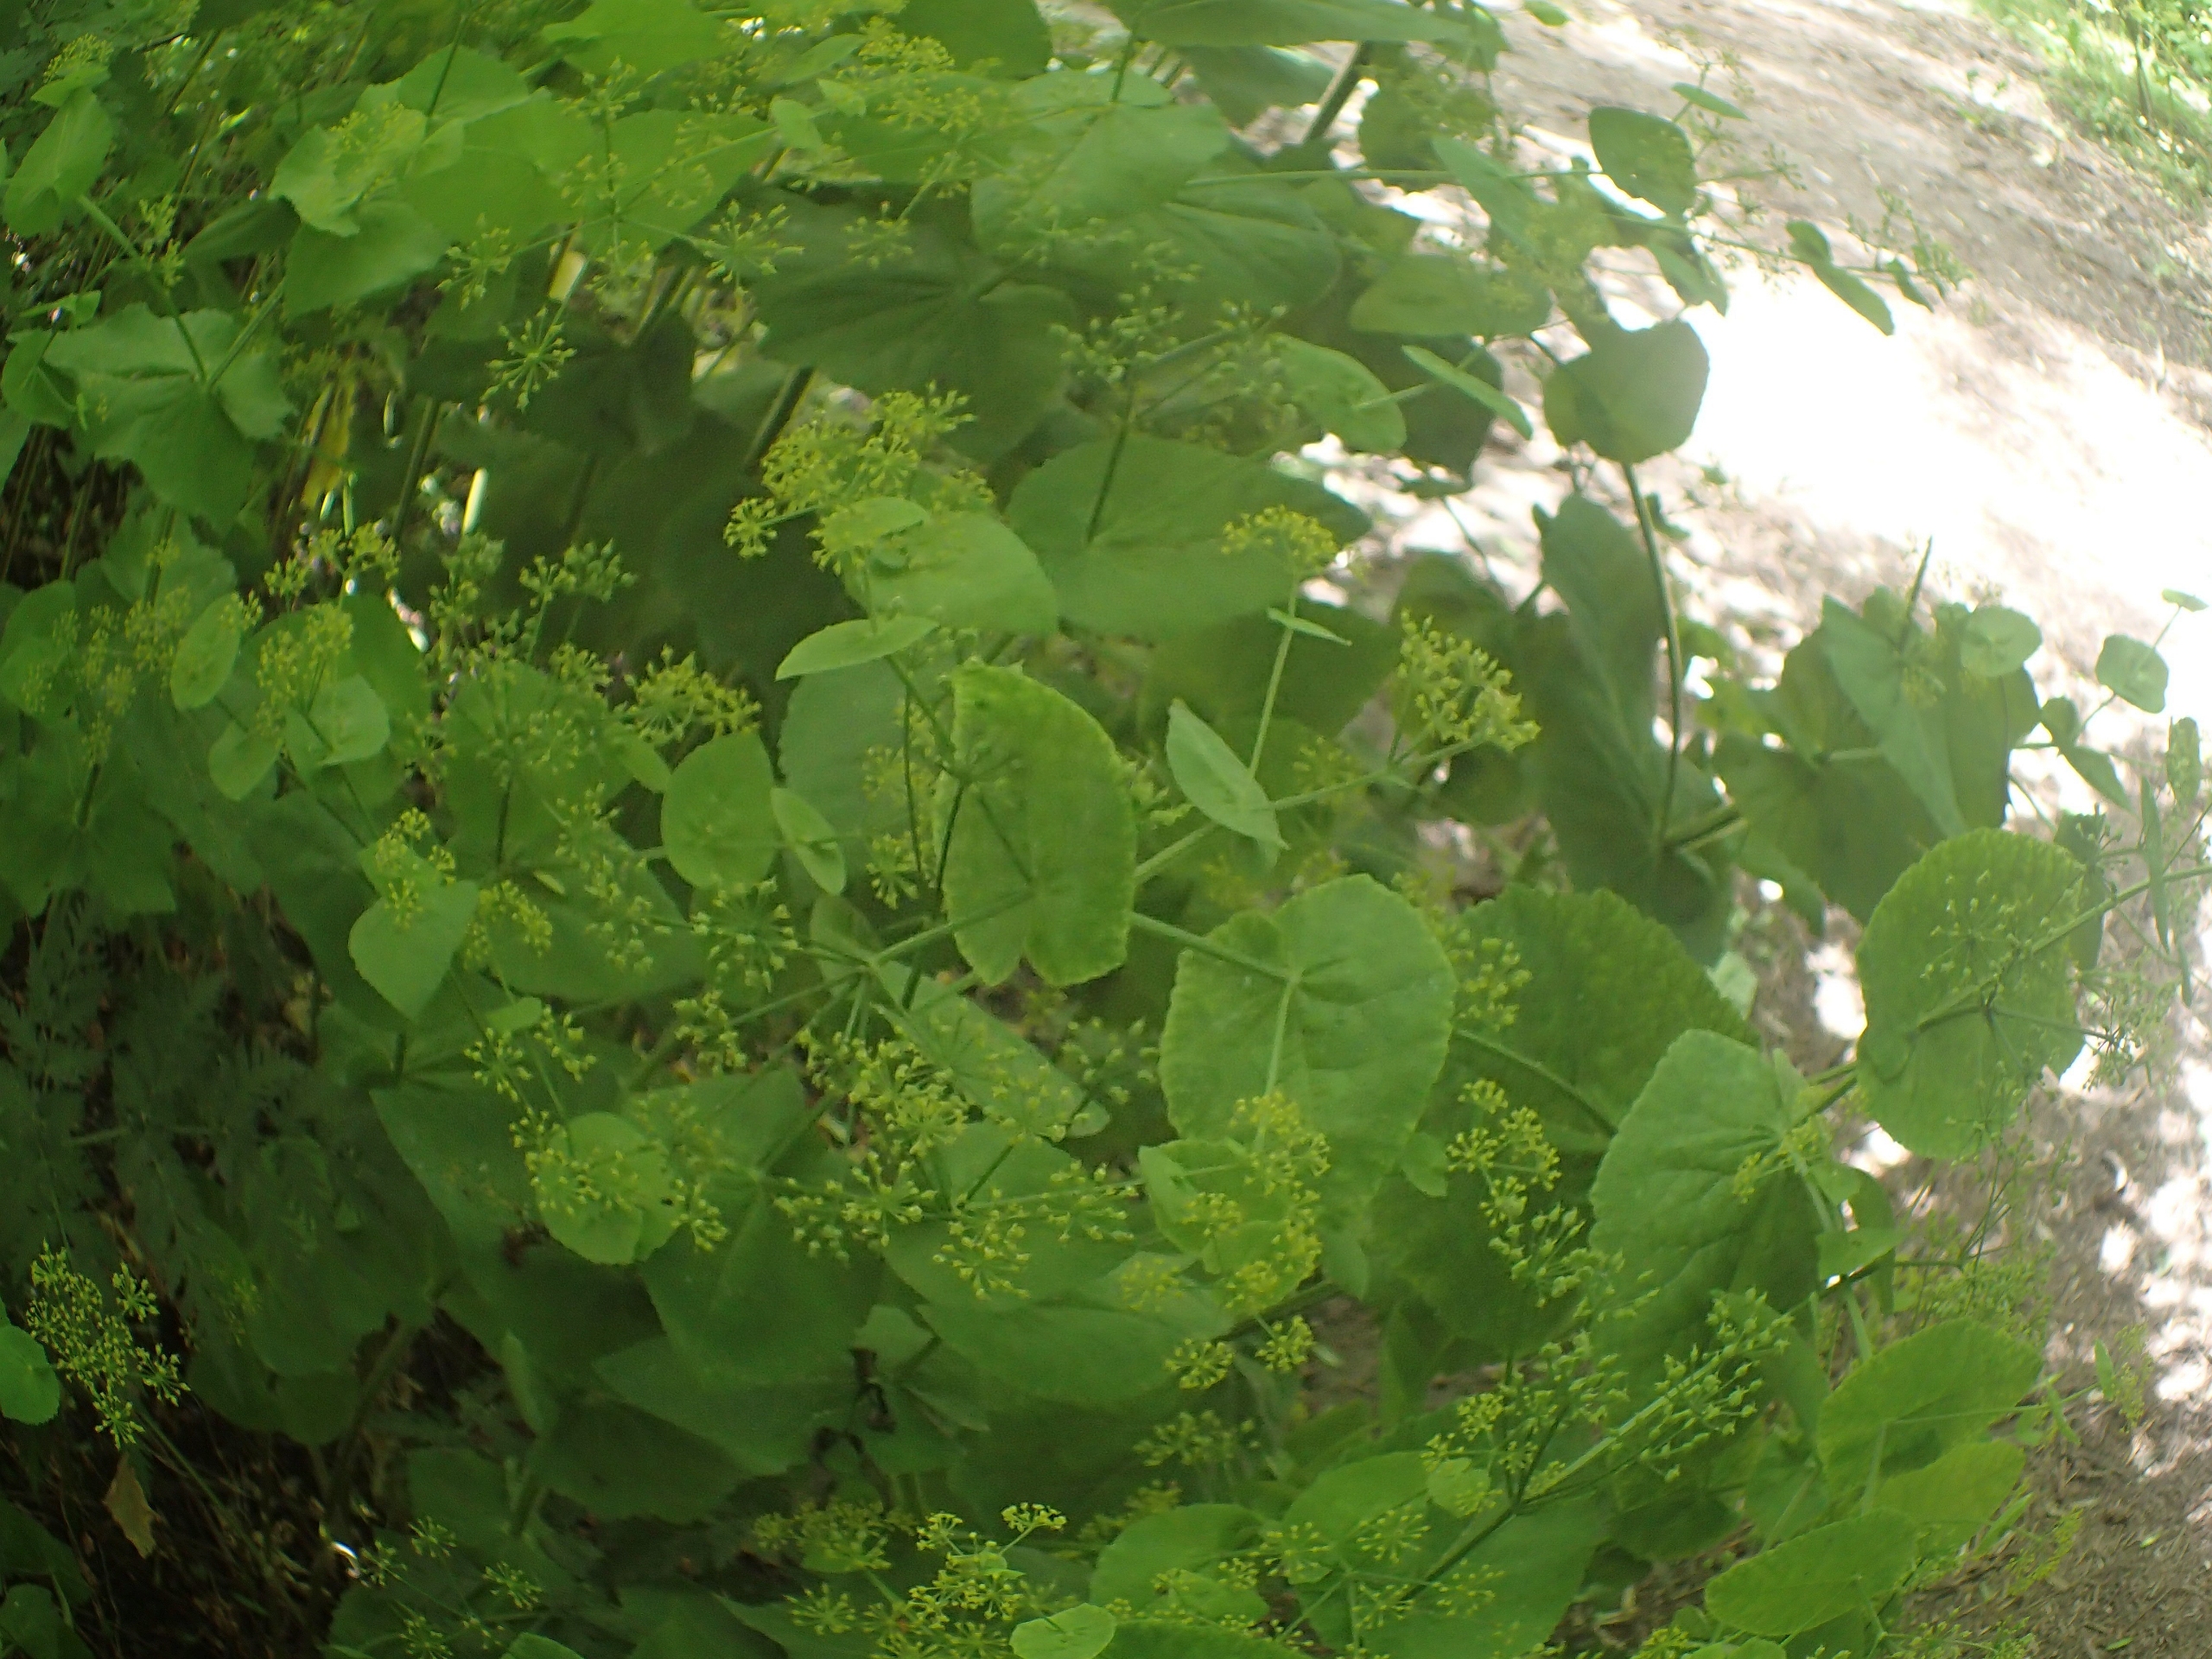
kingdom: Plantae
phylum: Tracheophyta
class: Magnoliopsida
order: Apiales
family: Apiaceae
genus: Smyrnium
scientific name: Smyrnium perfoliatum
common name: Lundgylden
